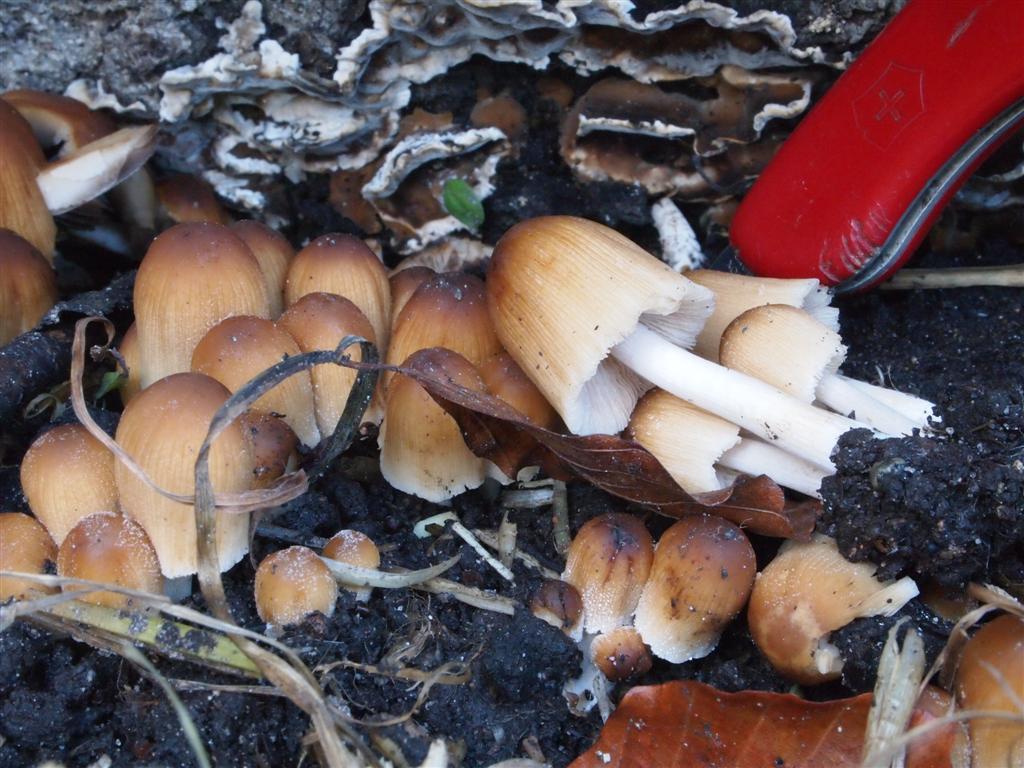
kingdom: Fungi
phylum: Basidiomycota
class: Agaricomycetes
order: Agaricales
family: Psathyrellaceae
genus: Coprinellus
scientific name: Coprinellus micaceus
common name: glimmer-blækhat
